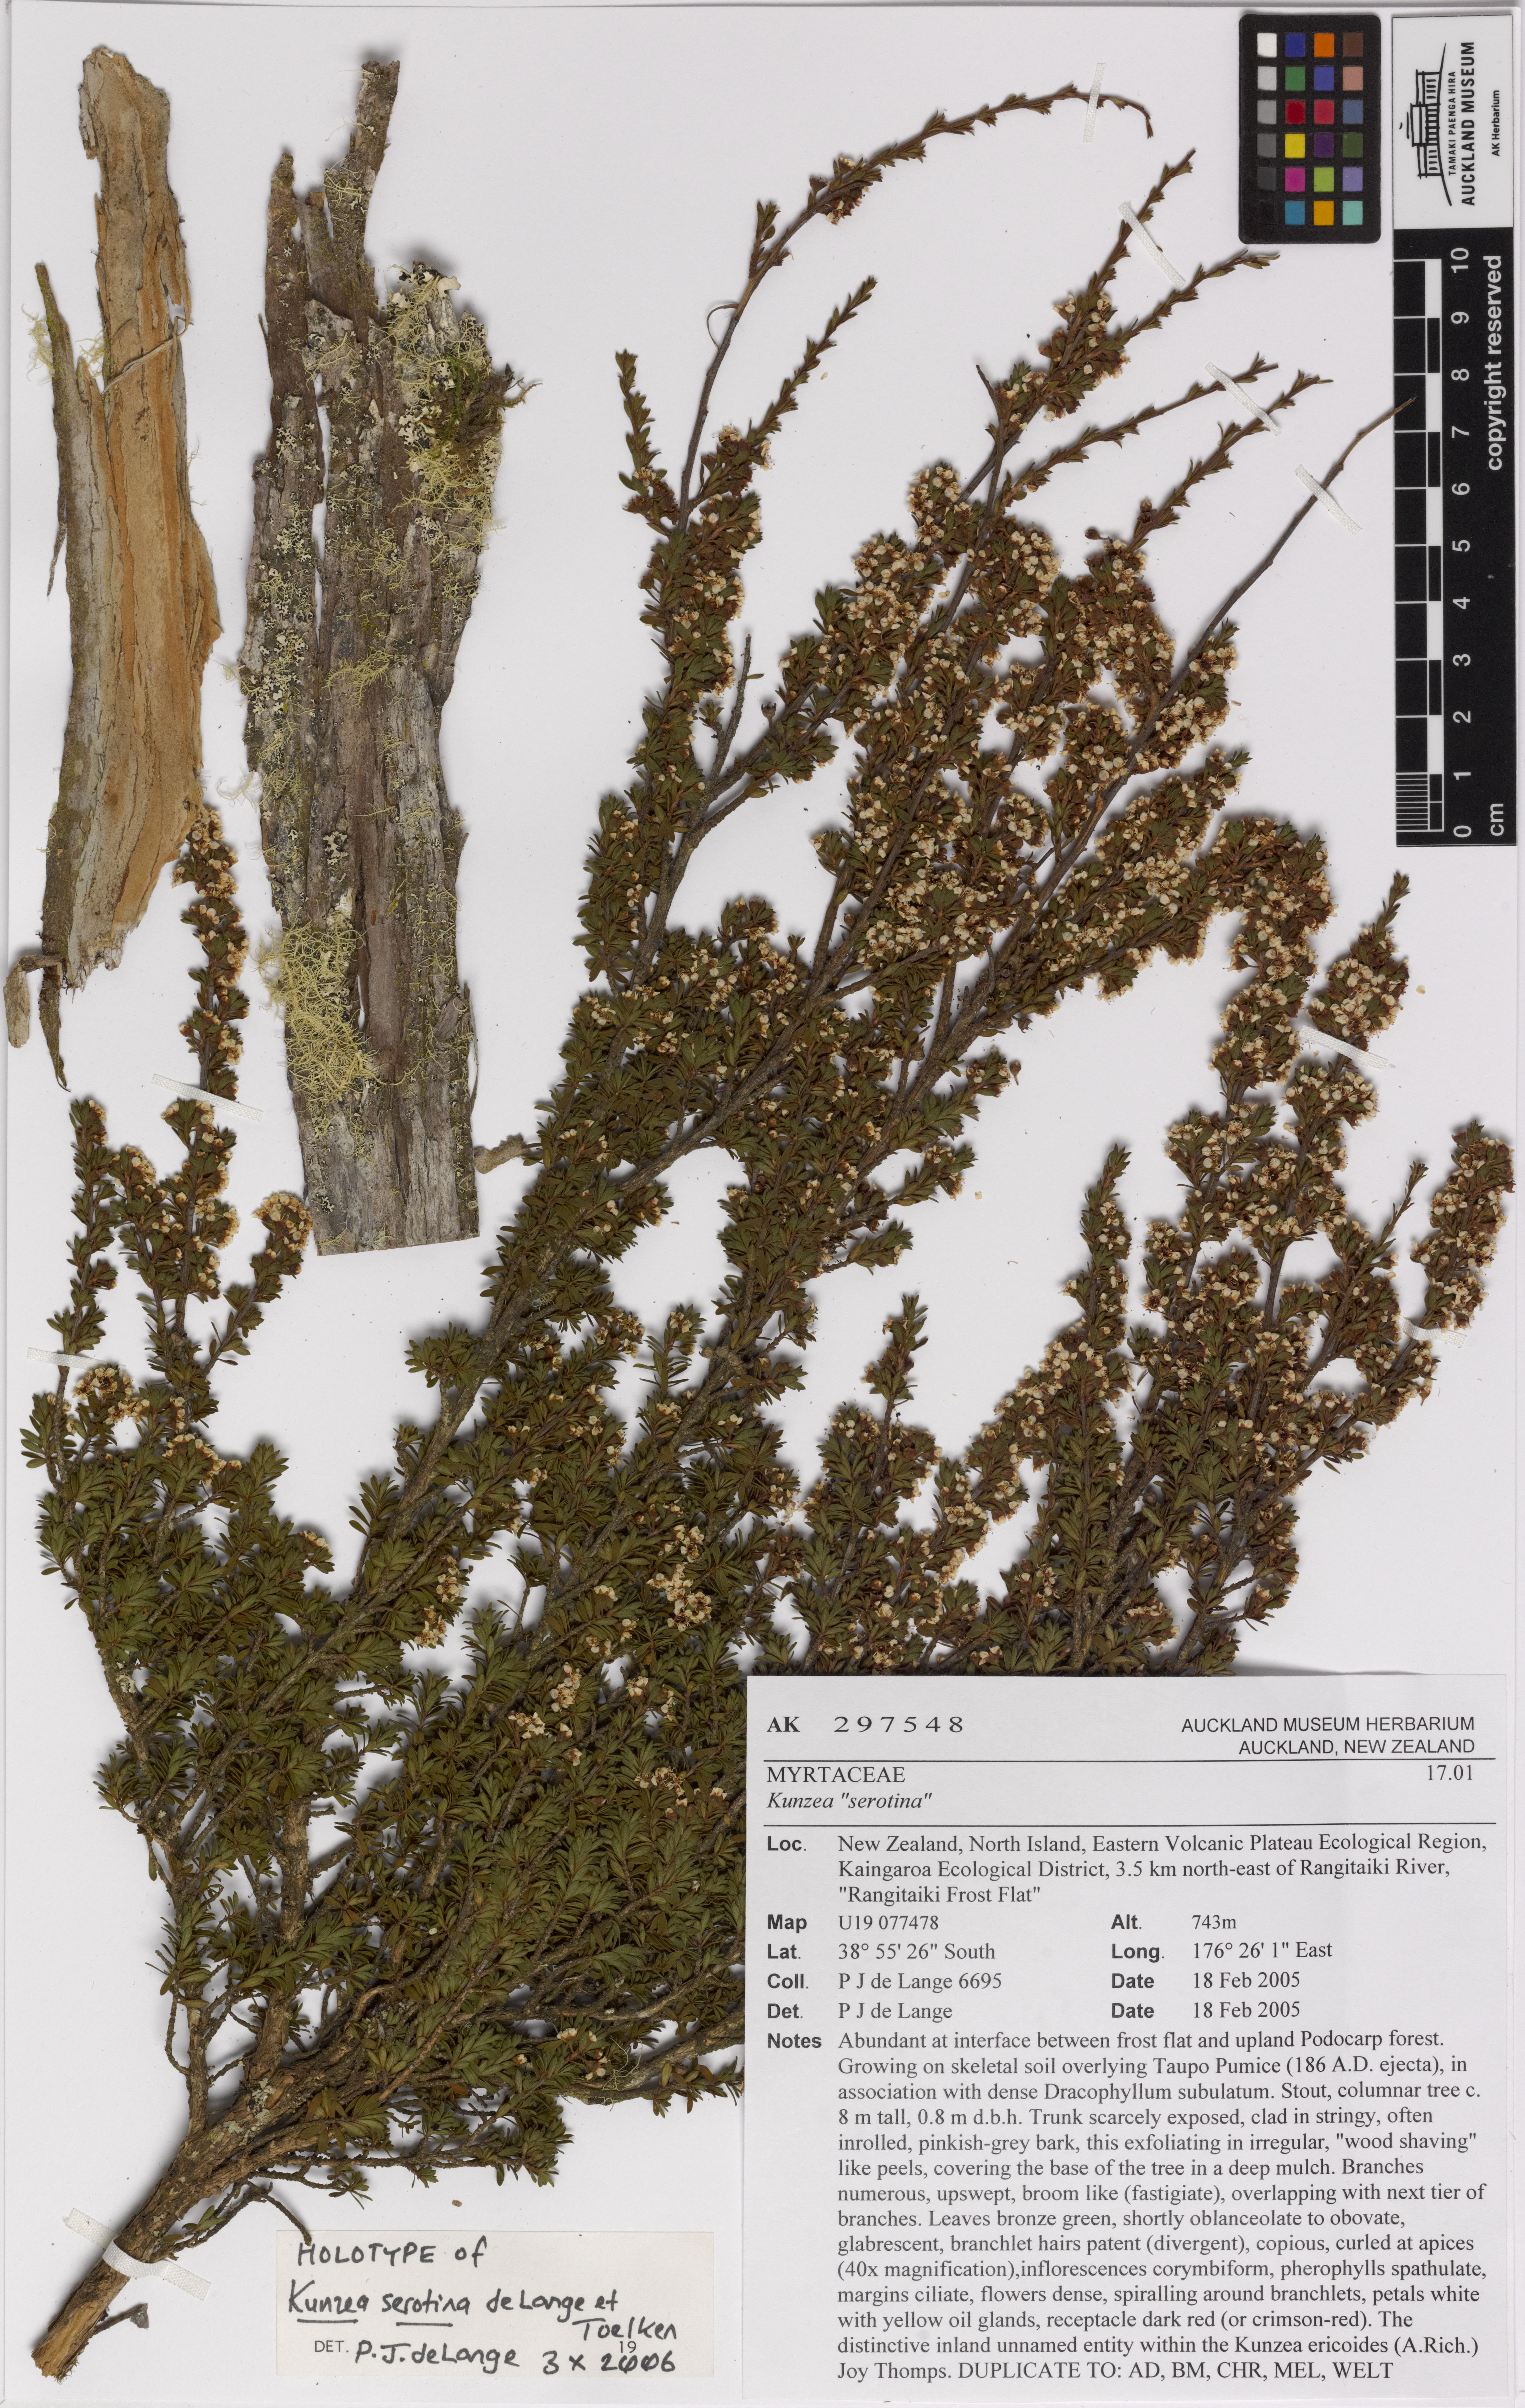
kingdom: Plantae
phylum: Tracheophyta
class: Magnoliopsida
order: Myrtales
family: Myrtaceae
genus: Kunzea
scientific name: Kunzea serotina
